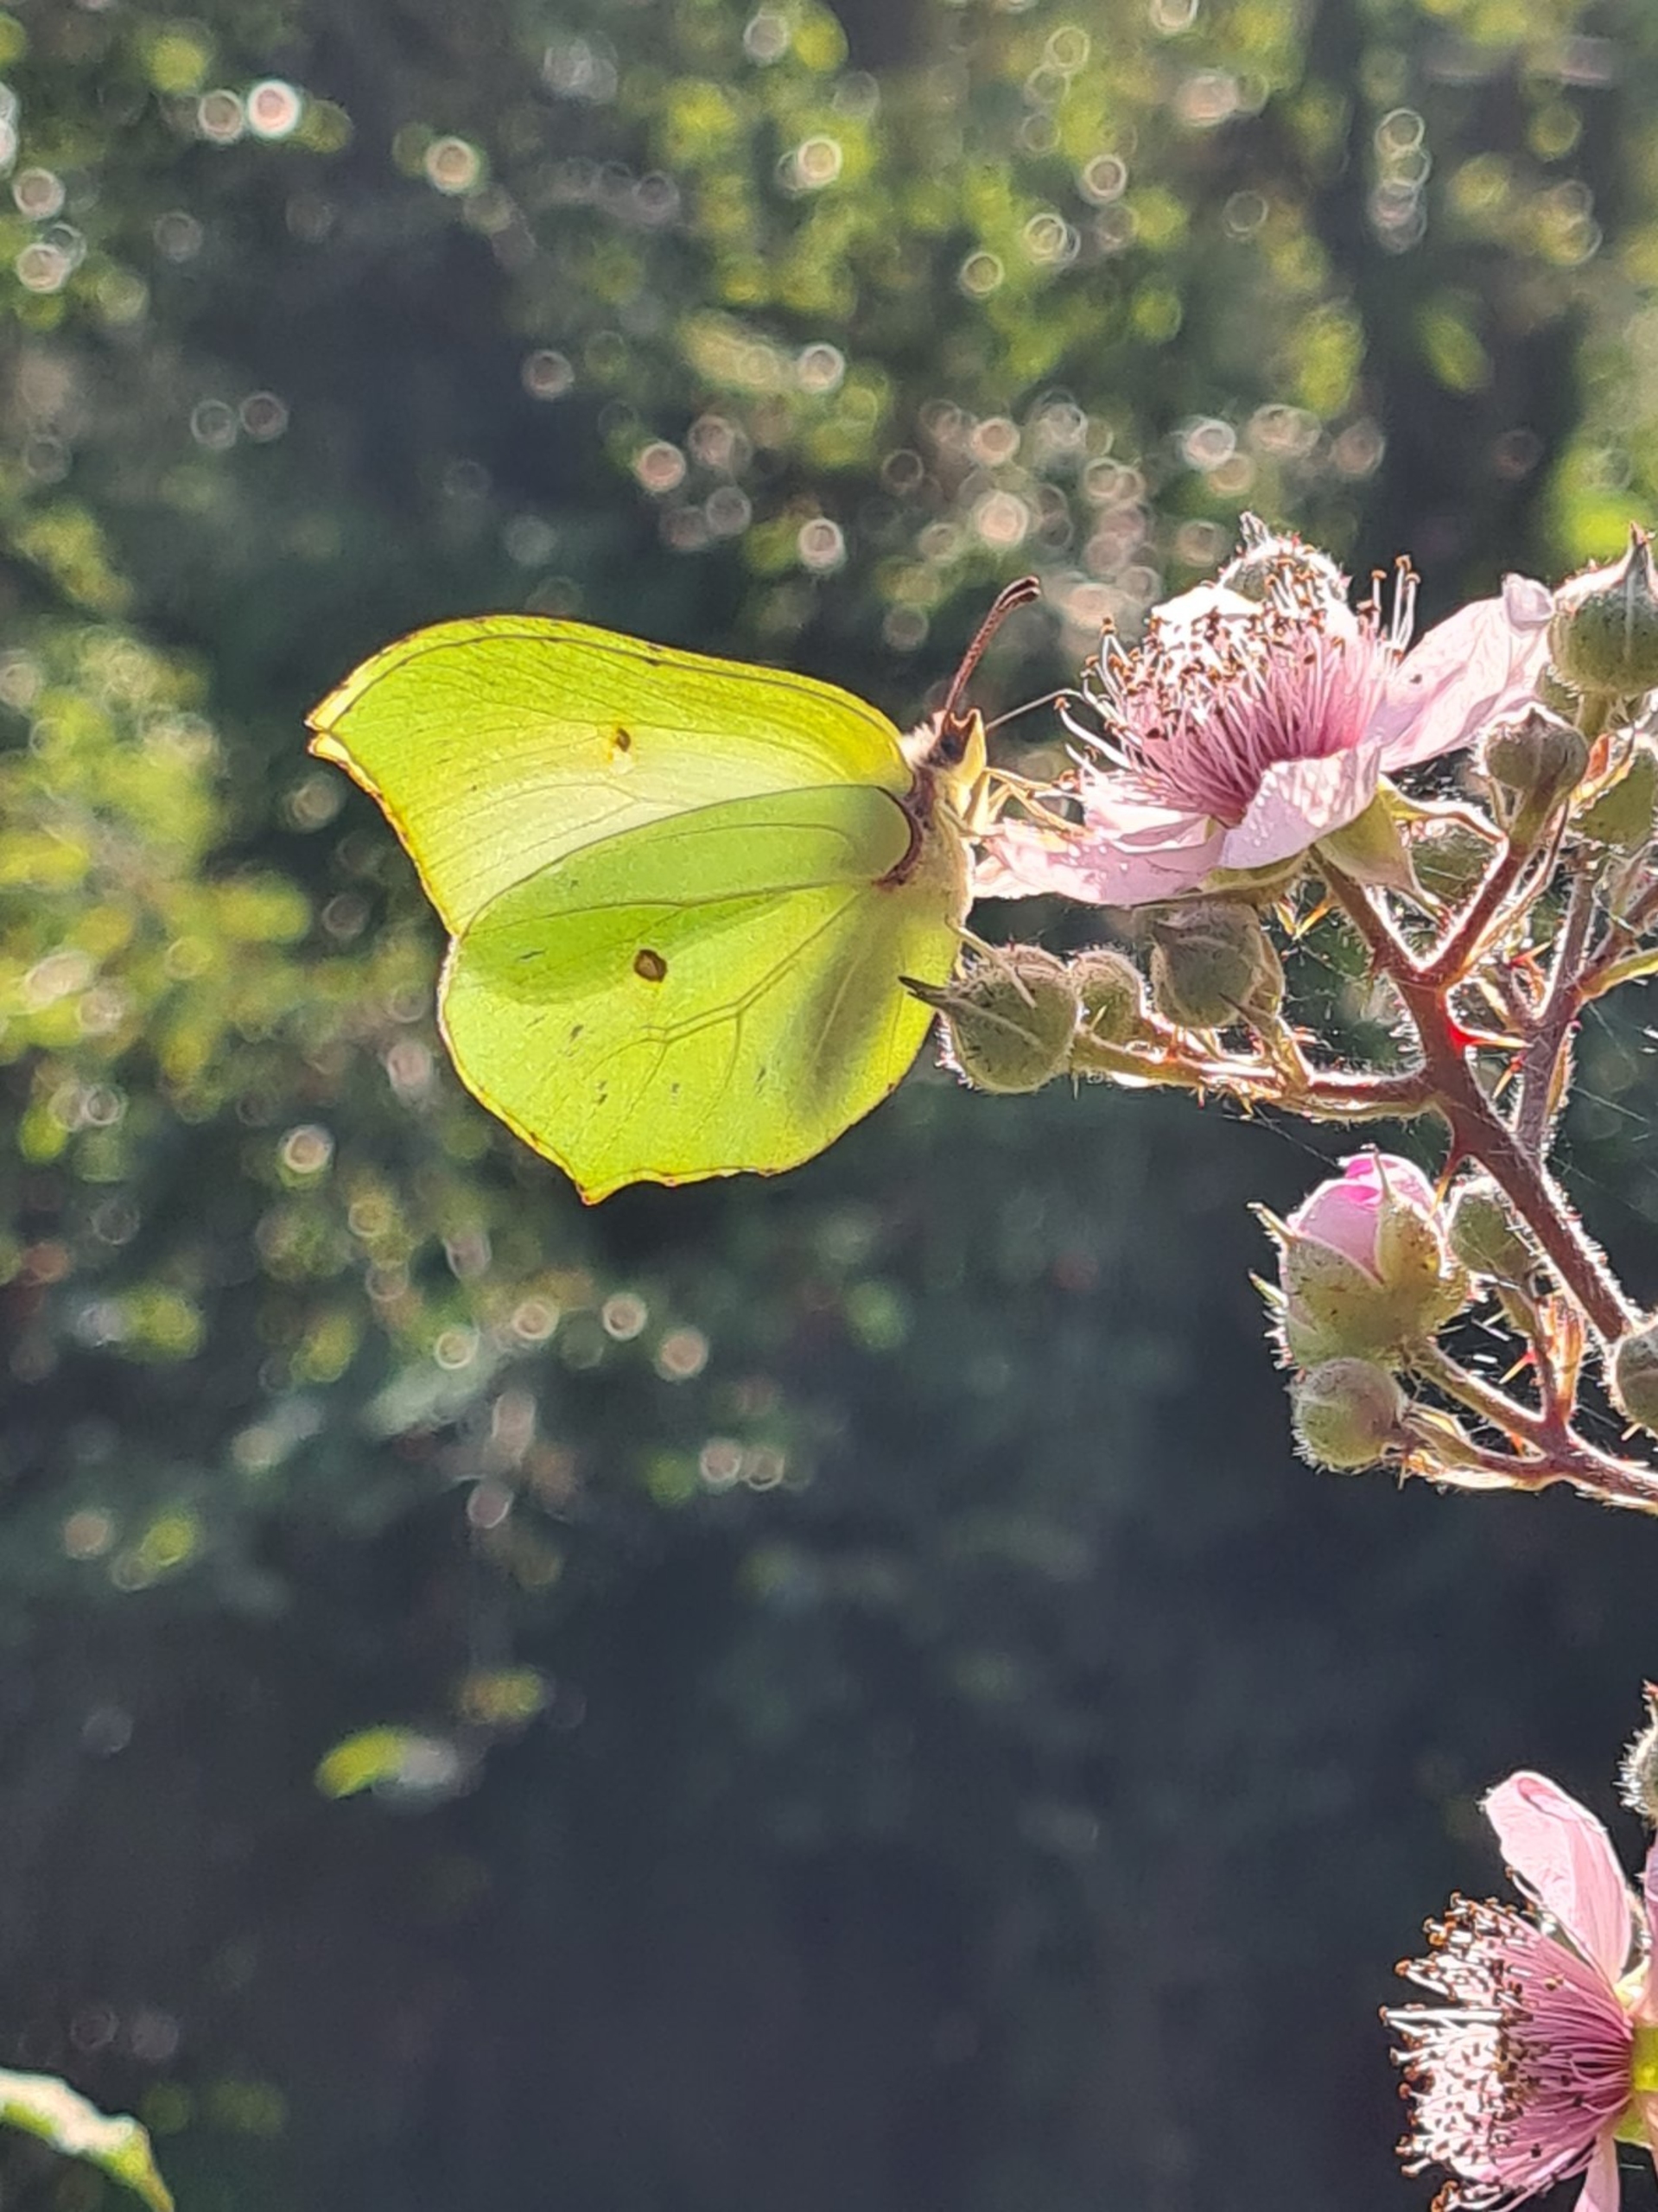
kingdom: Animalia
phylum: Arthropoda
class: Insecta
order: Lepidoptera
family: Pieridae
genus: Gonepteryx
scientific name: Gonepteryx rhamni
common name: Citronsommerfugl
